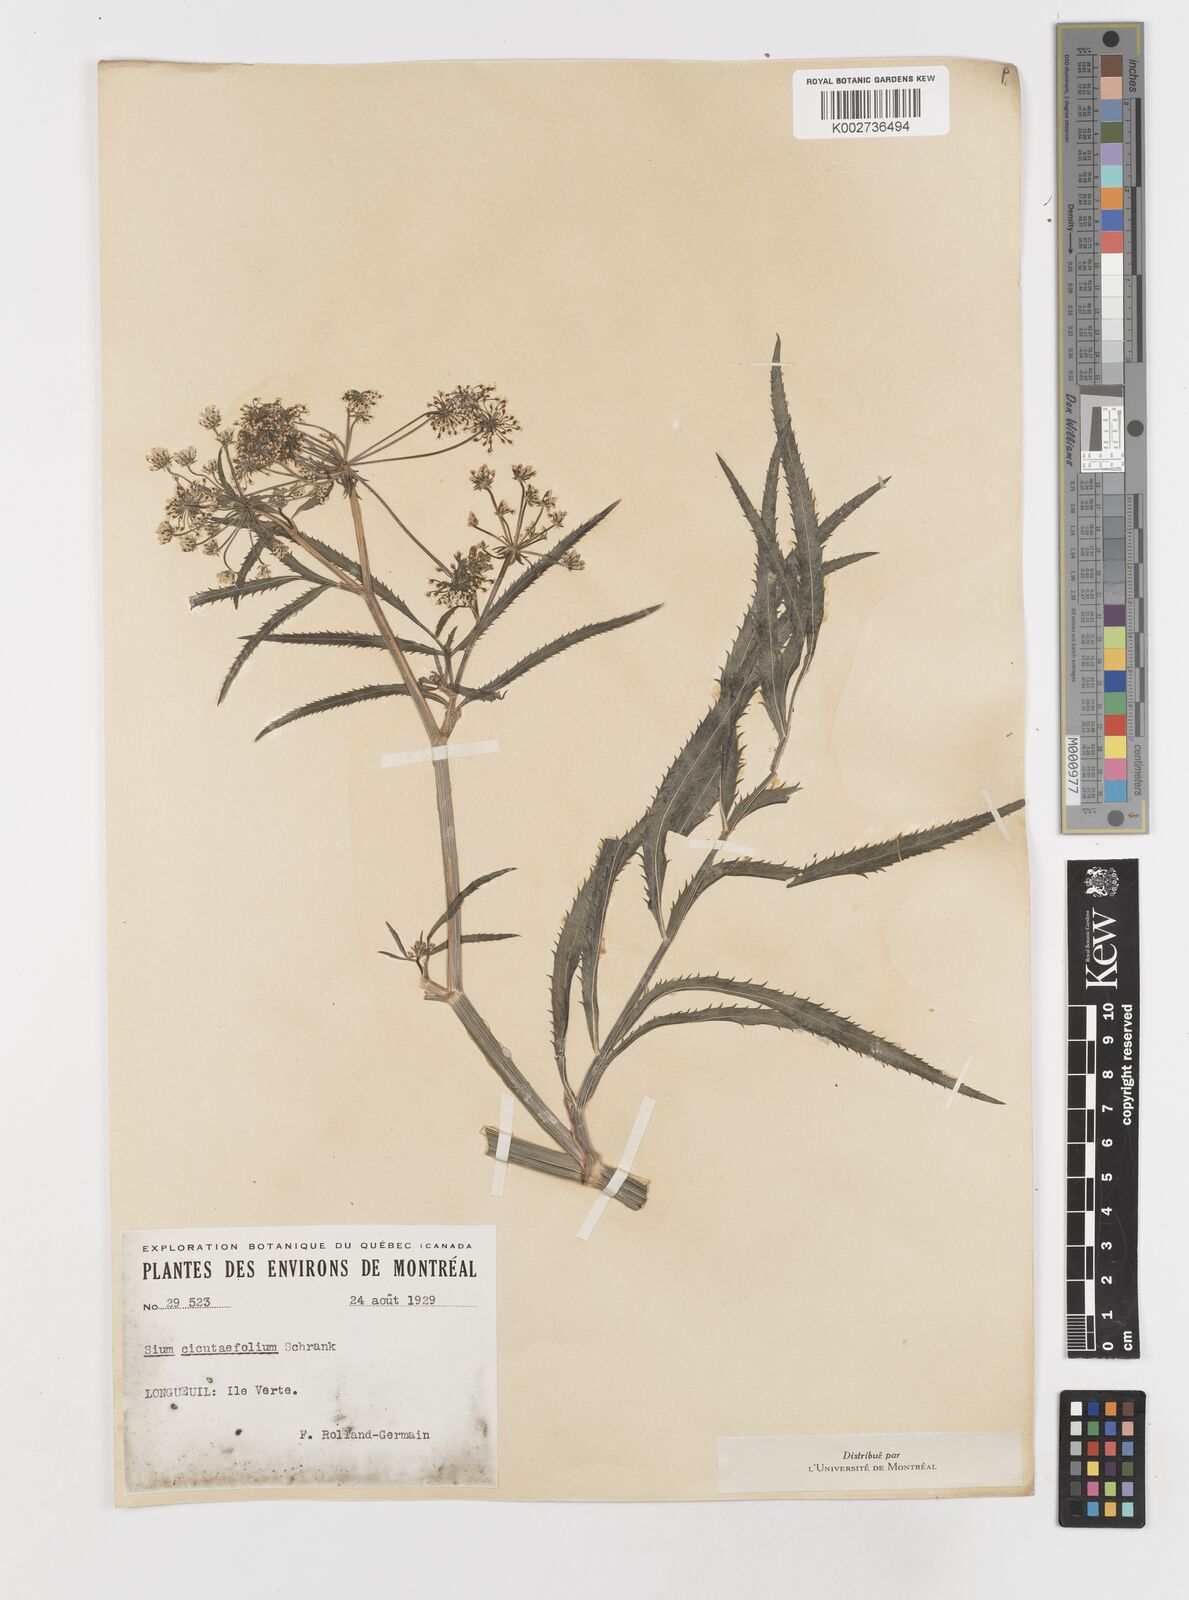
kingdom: Plantae
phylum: Tracheophyta
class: Magnoliopsida
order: Apiales
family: Apiaceae
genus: Sium
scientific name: Sium suave
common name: Hemlock water-parsnip
